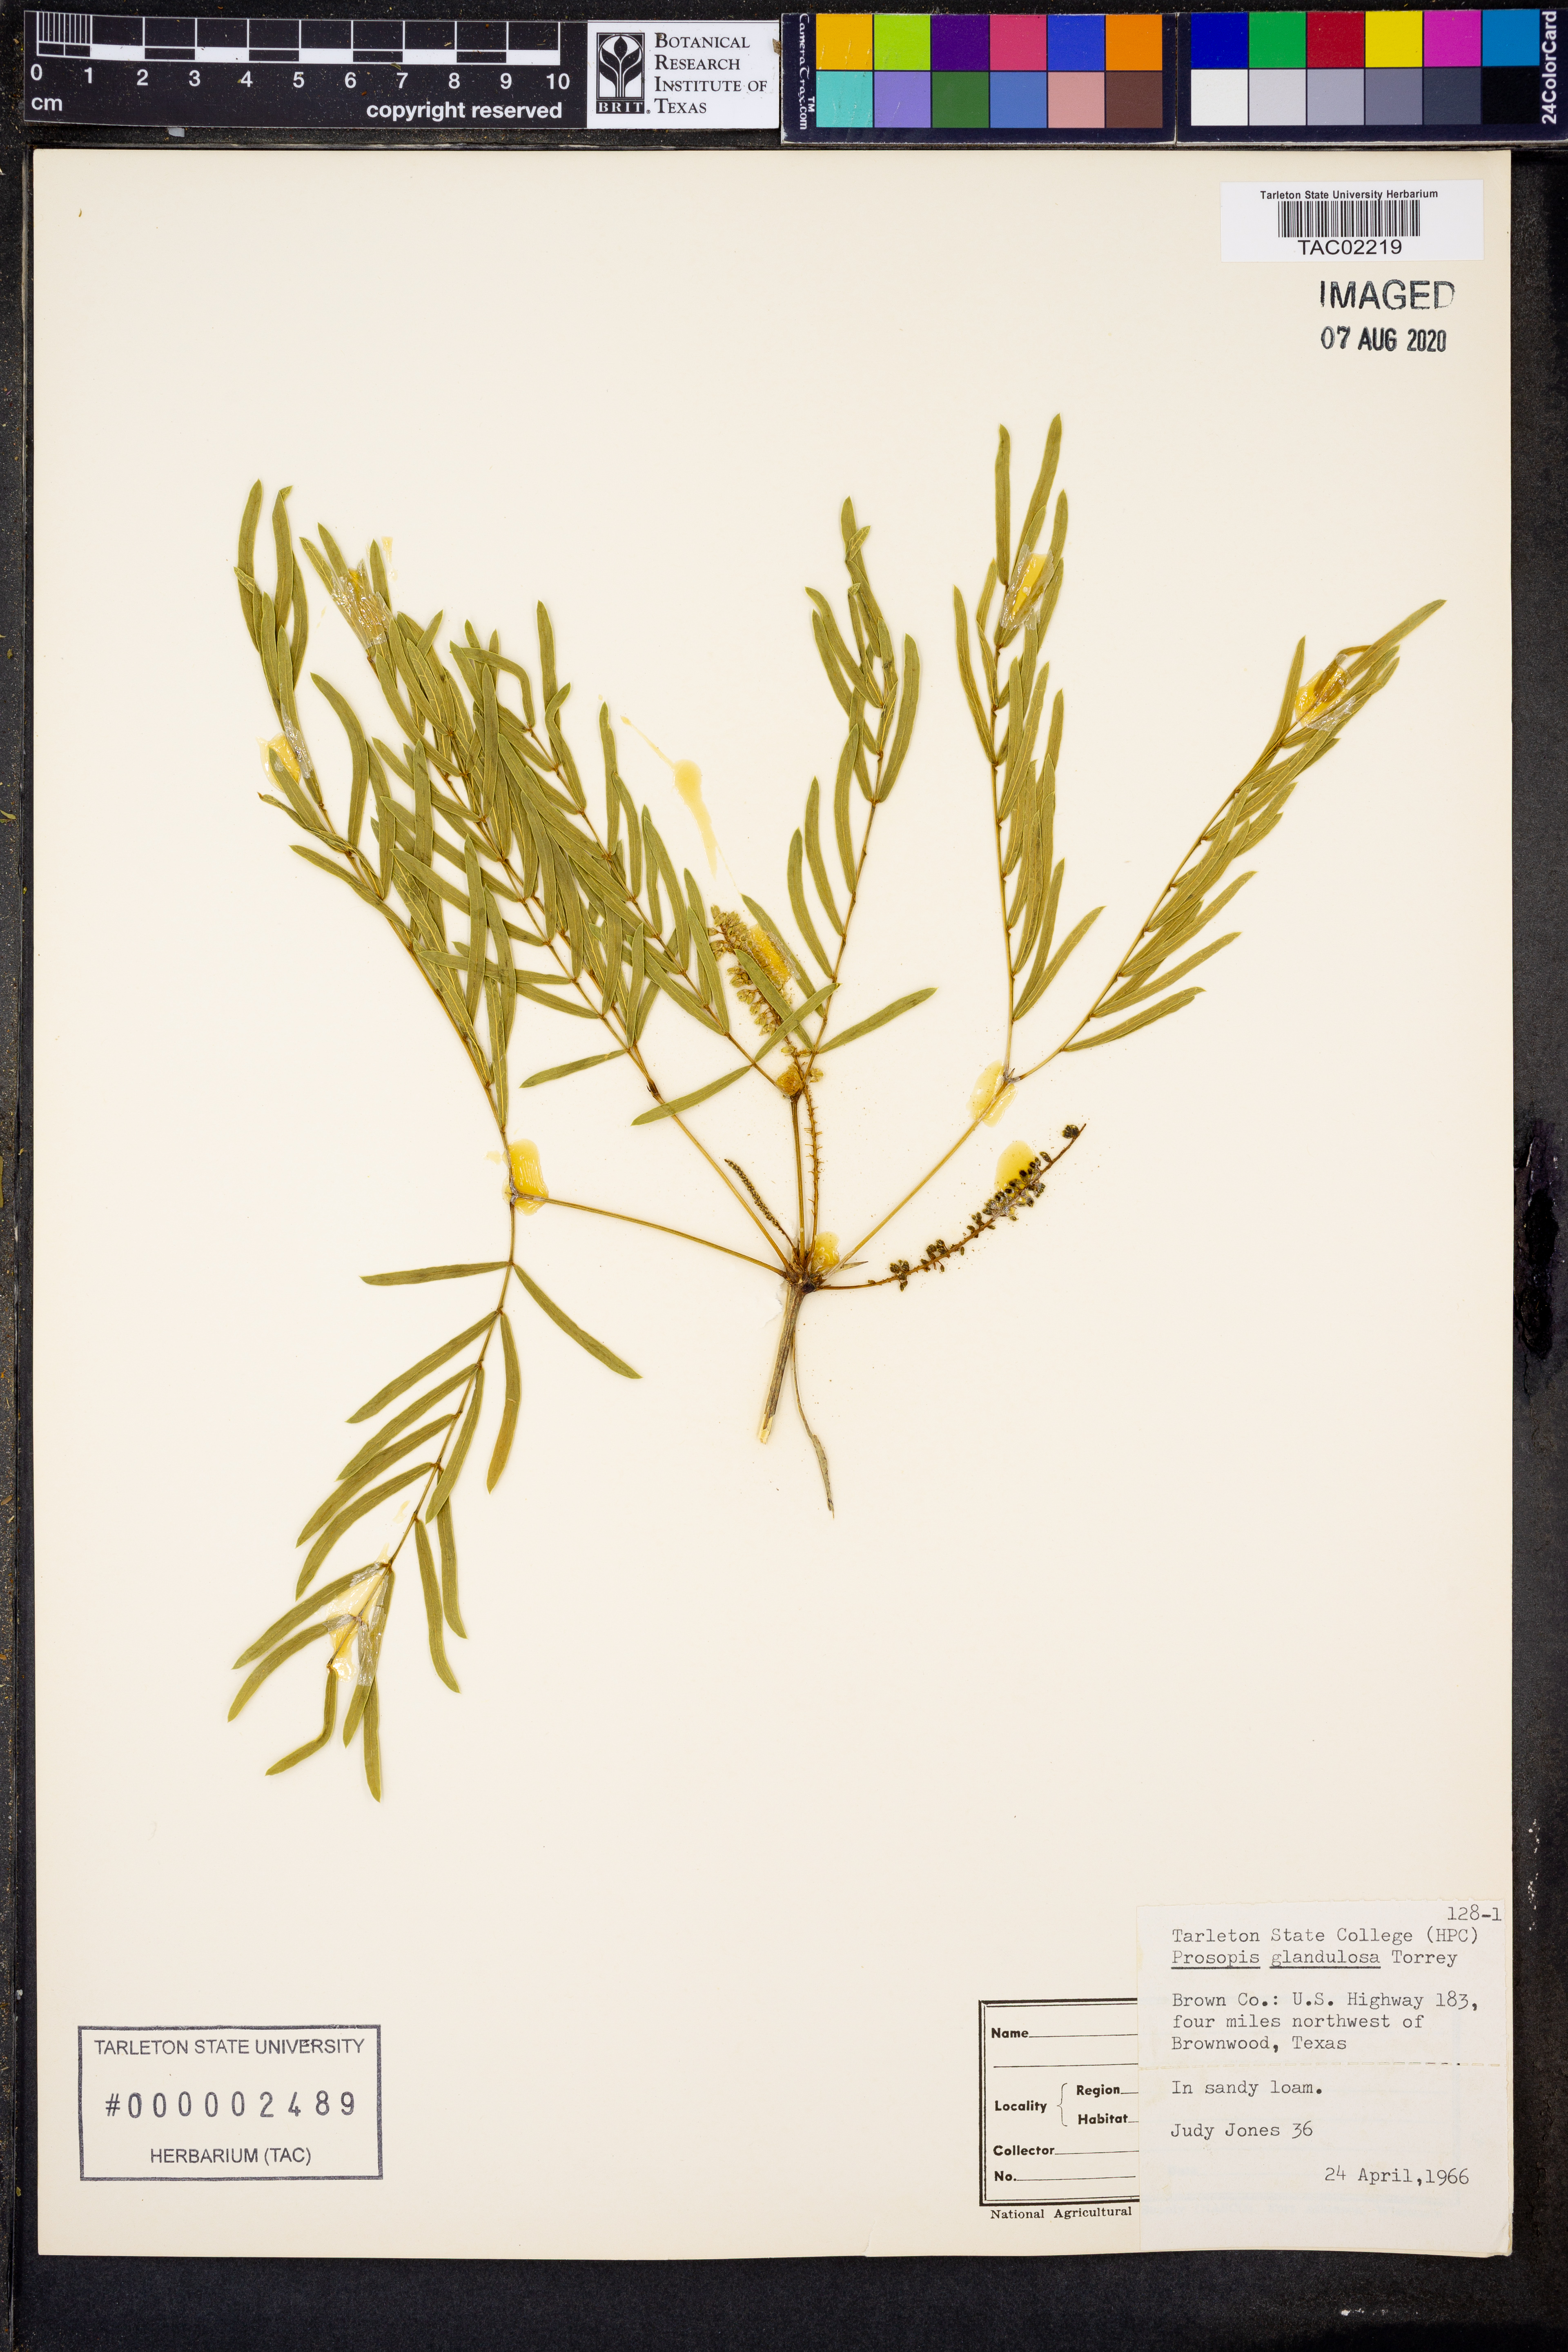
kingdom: Plantae
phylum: Tracheophyta
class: Magnoliopsida
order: Fabales
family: Fabaceae
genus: Prosopis
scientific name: Prosopis glandulosa
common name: Honey mesquite
